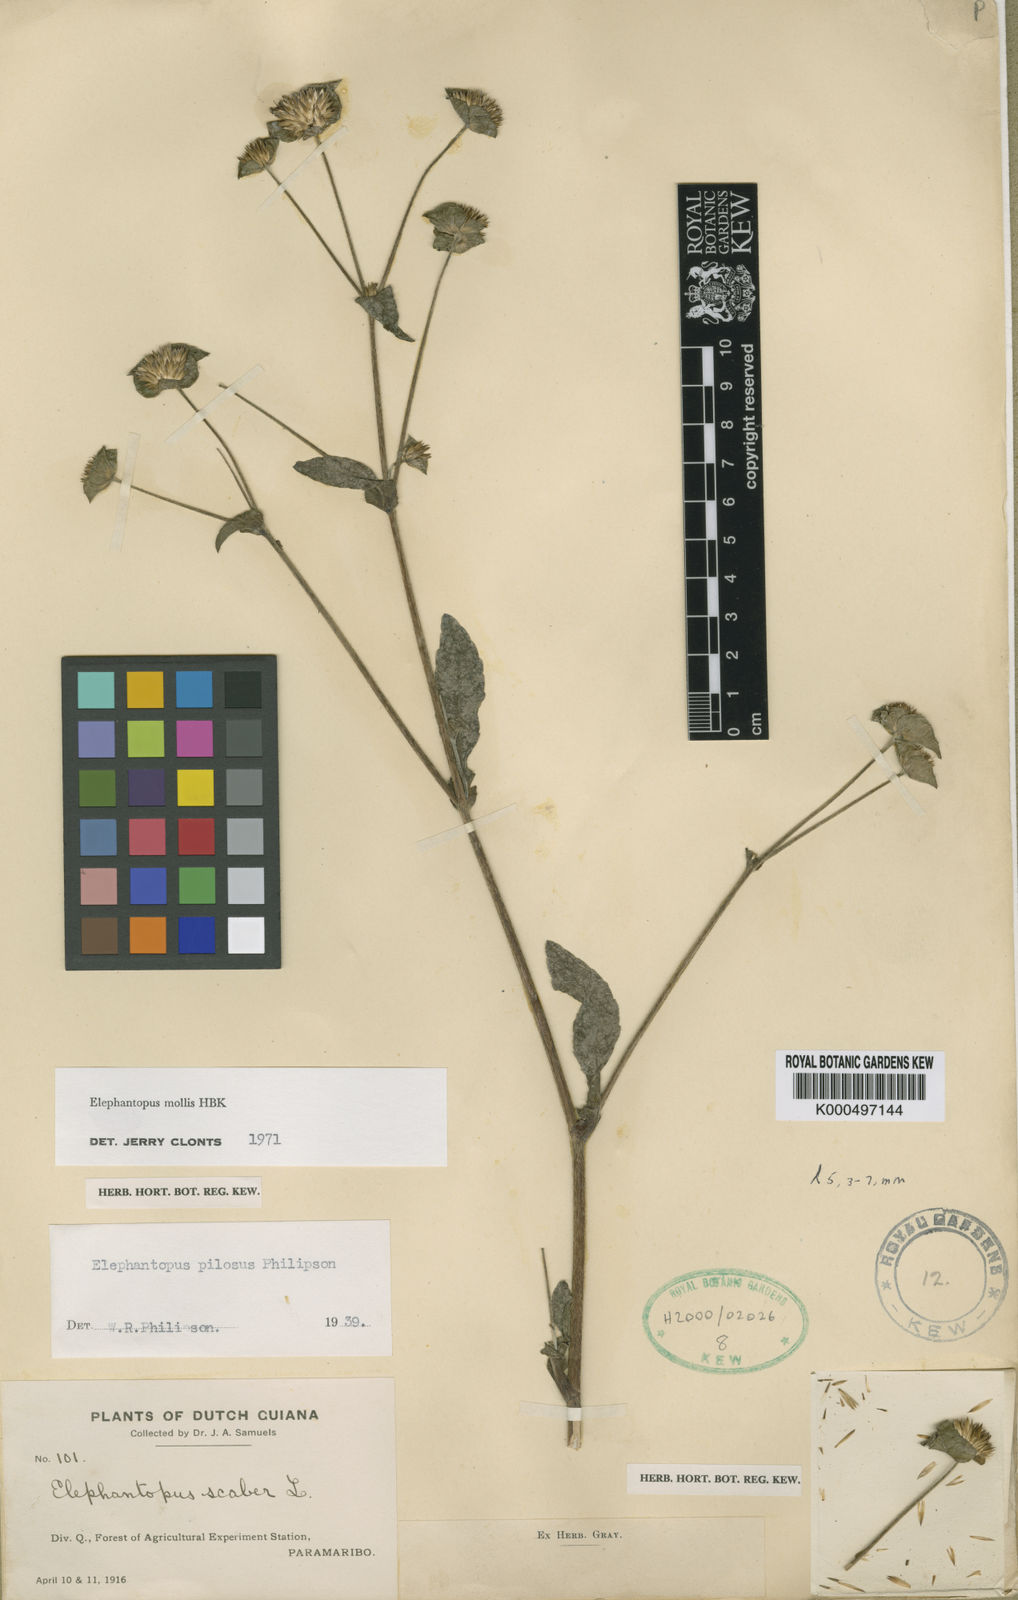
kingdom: Plantae
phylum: Tracheophyta
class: Magnoliopsida
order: Asterales
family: Asteraceae
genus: Elephantopus
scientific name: Elephantopus mollis
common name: Soft elephantsfoot
